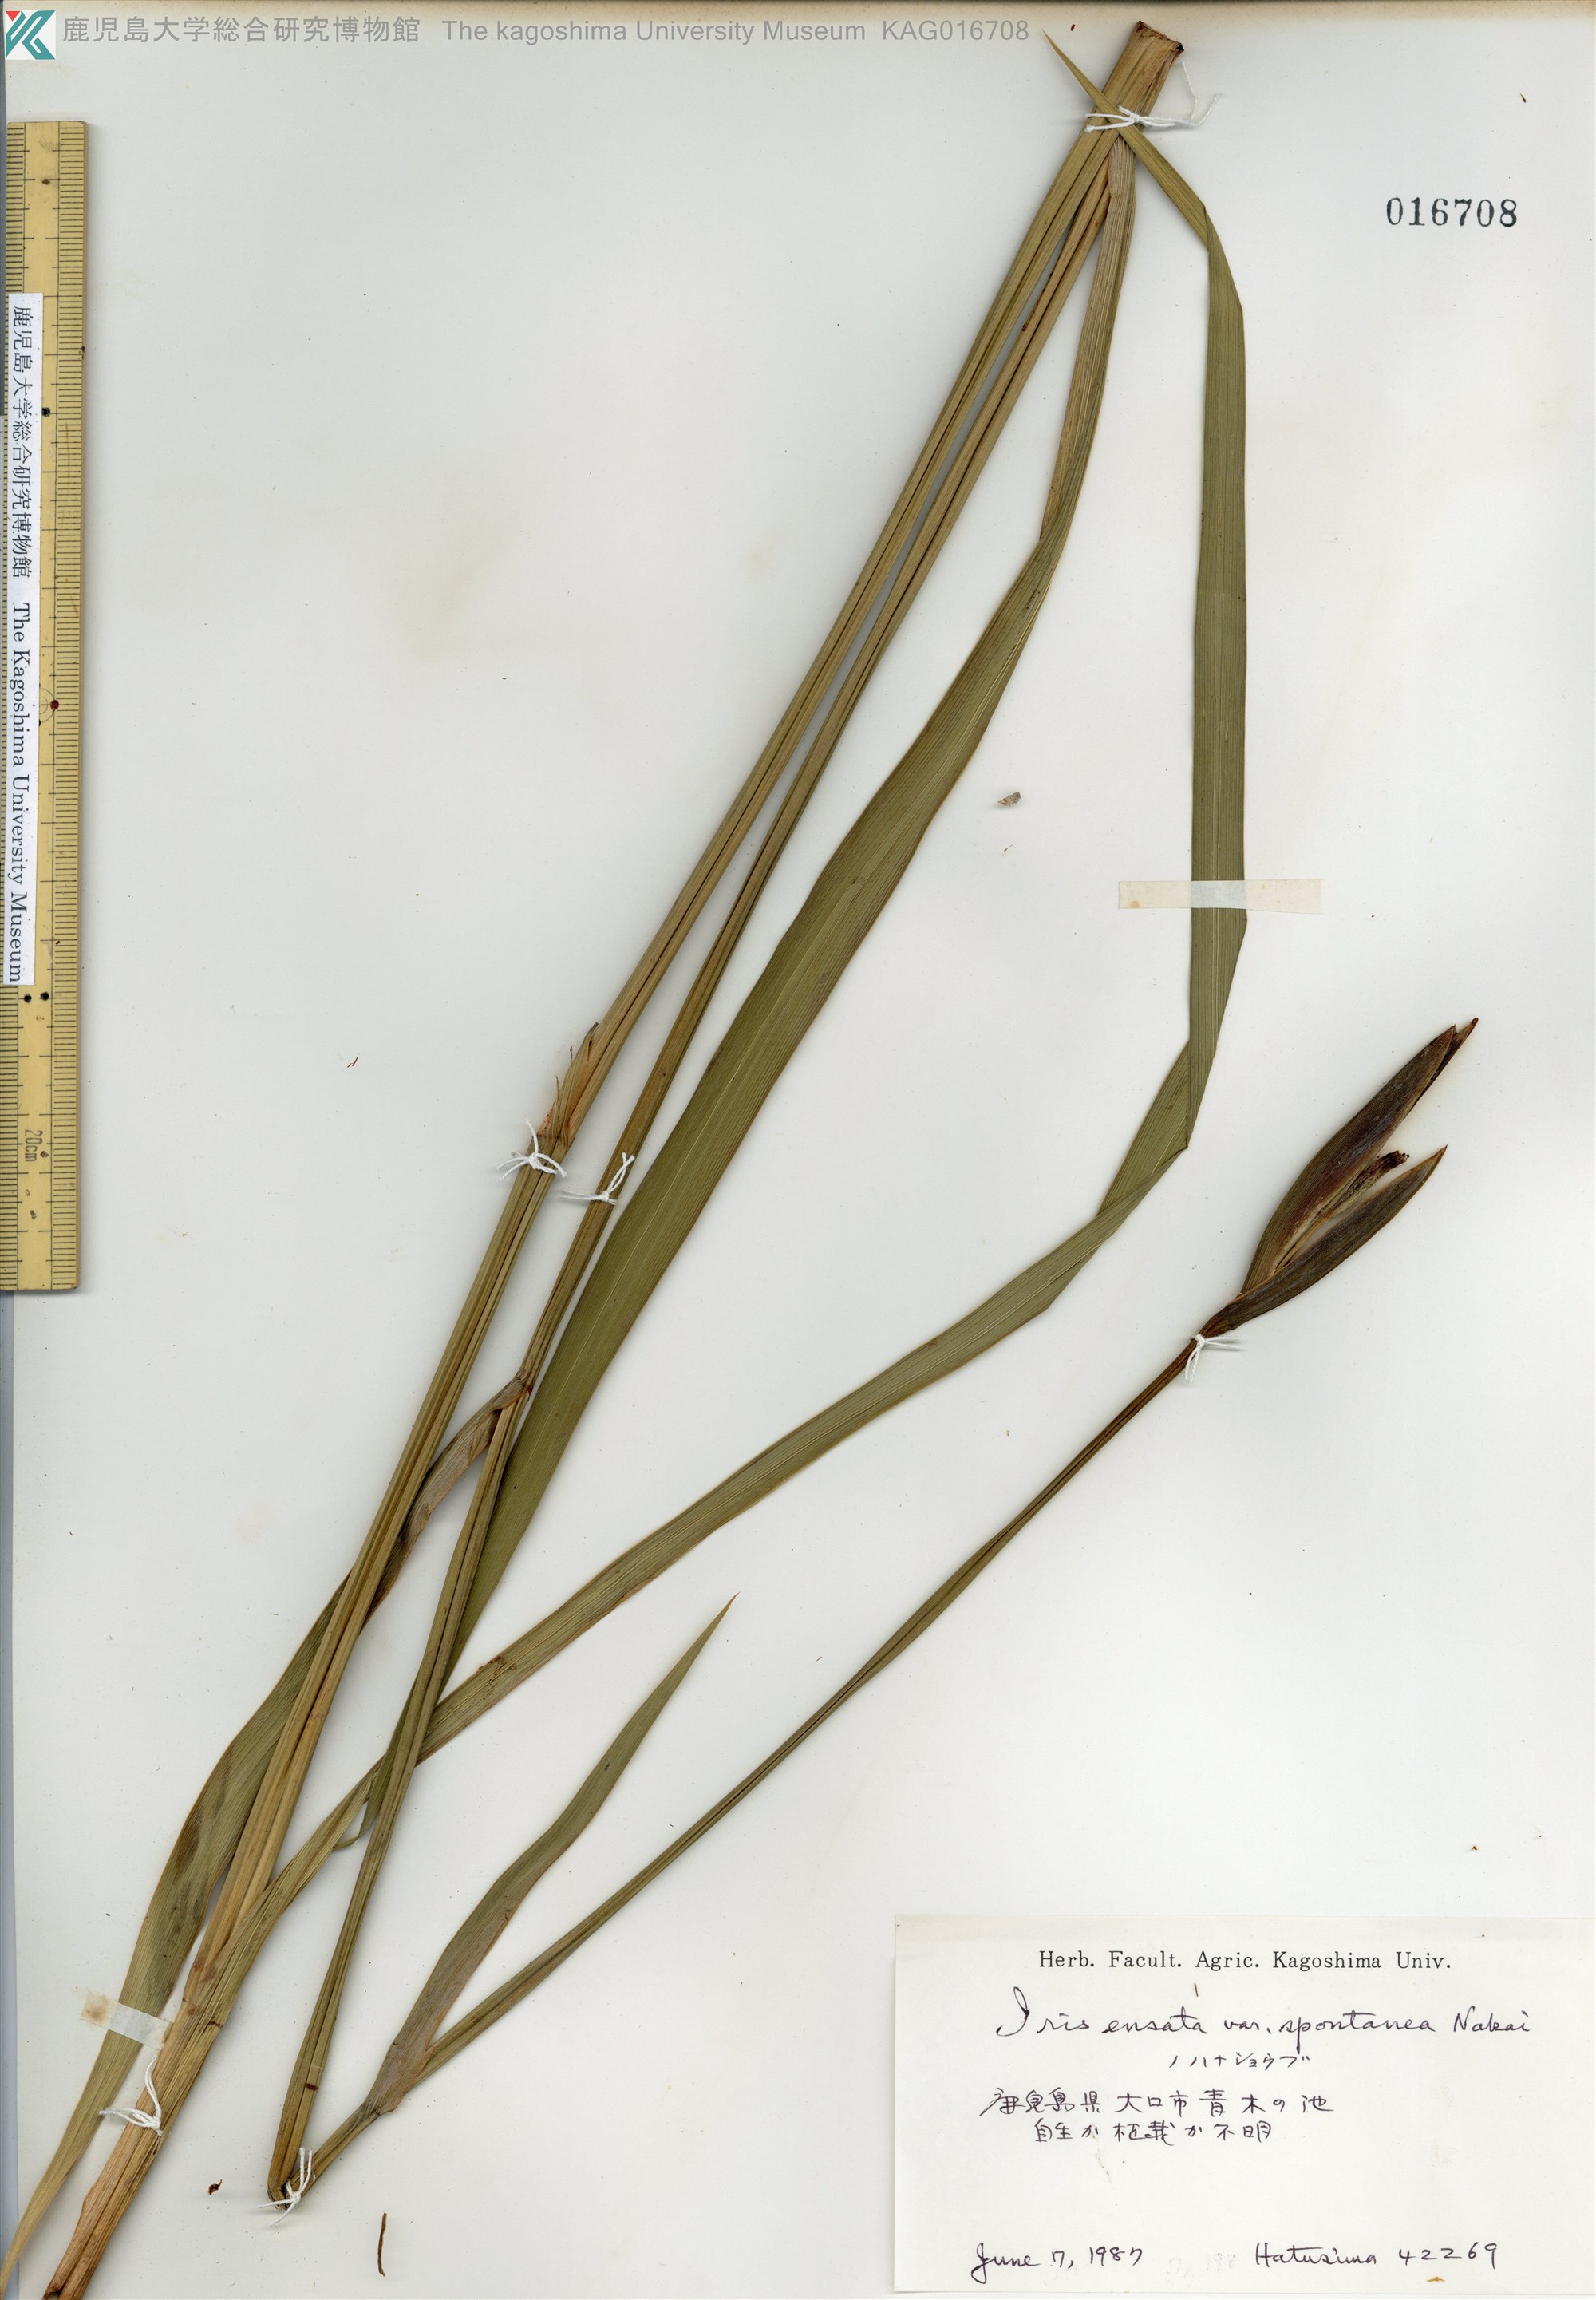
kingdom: Plantae
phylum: Tracheophyta
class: Liliopsida
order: Asparagales
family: Iridaceae
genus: Iris
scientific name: Iris ensata
